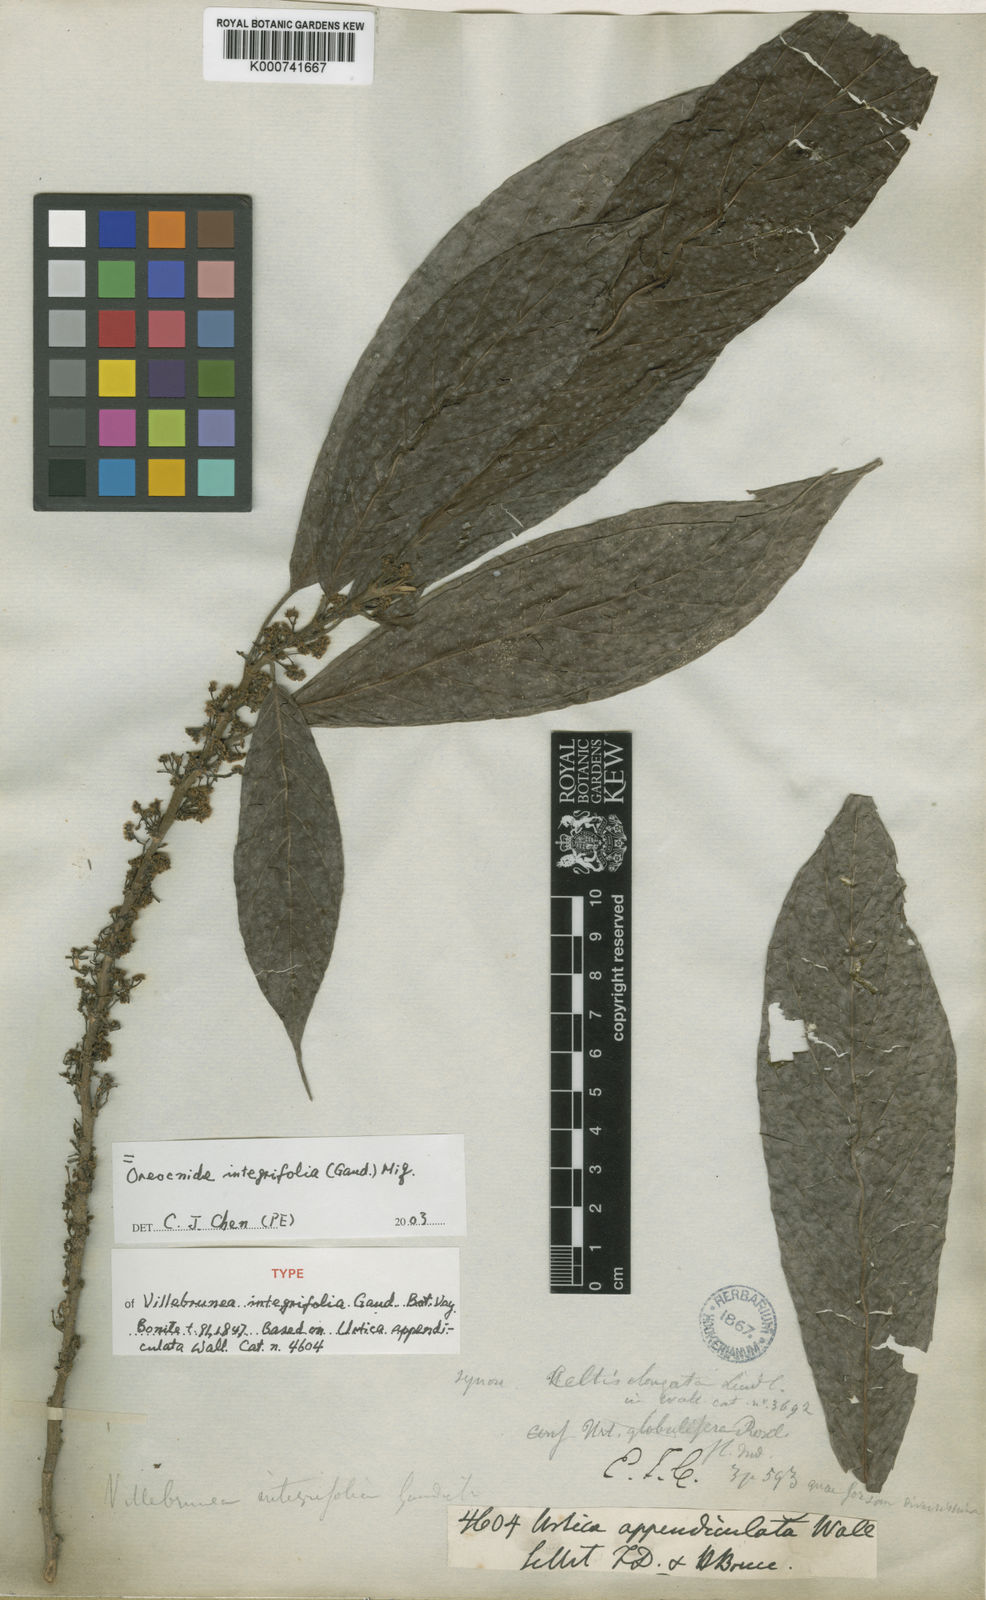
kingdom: Plantae
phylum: Tracheophyta
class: Magnoliopsida
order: Rosales
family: Urticaceae
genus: Oreocnide
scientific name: Oreocnide integrifolia
